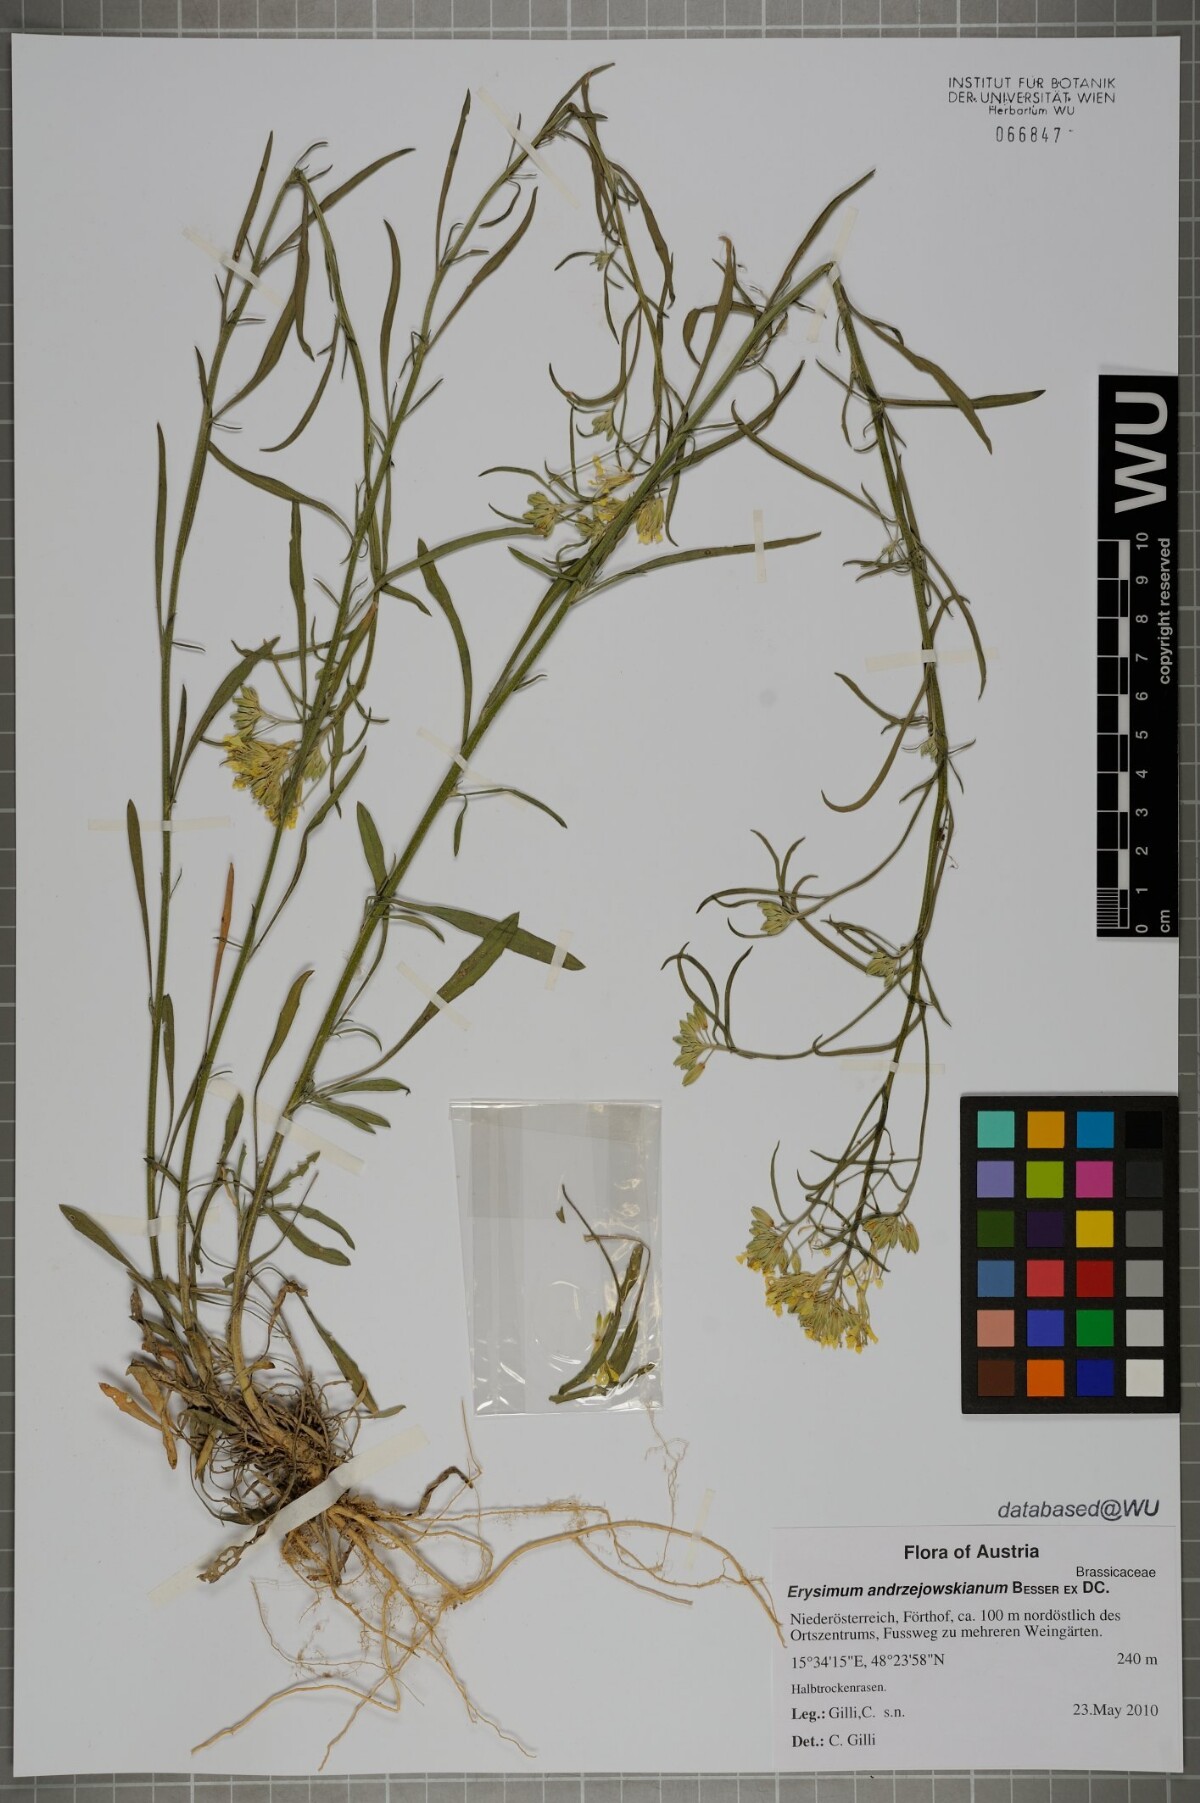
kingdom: Plantae
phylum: Tracheophyta
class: Magnoliopsida
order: Brassicales
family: Brassicaceae
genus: Erysimum
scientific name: Erysimum andrzejowskianum
